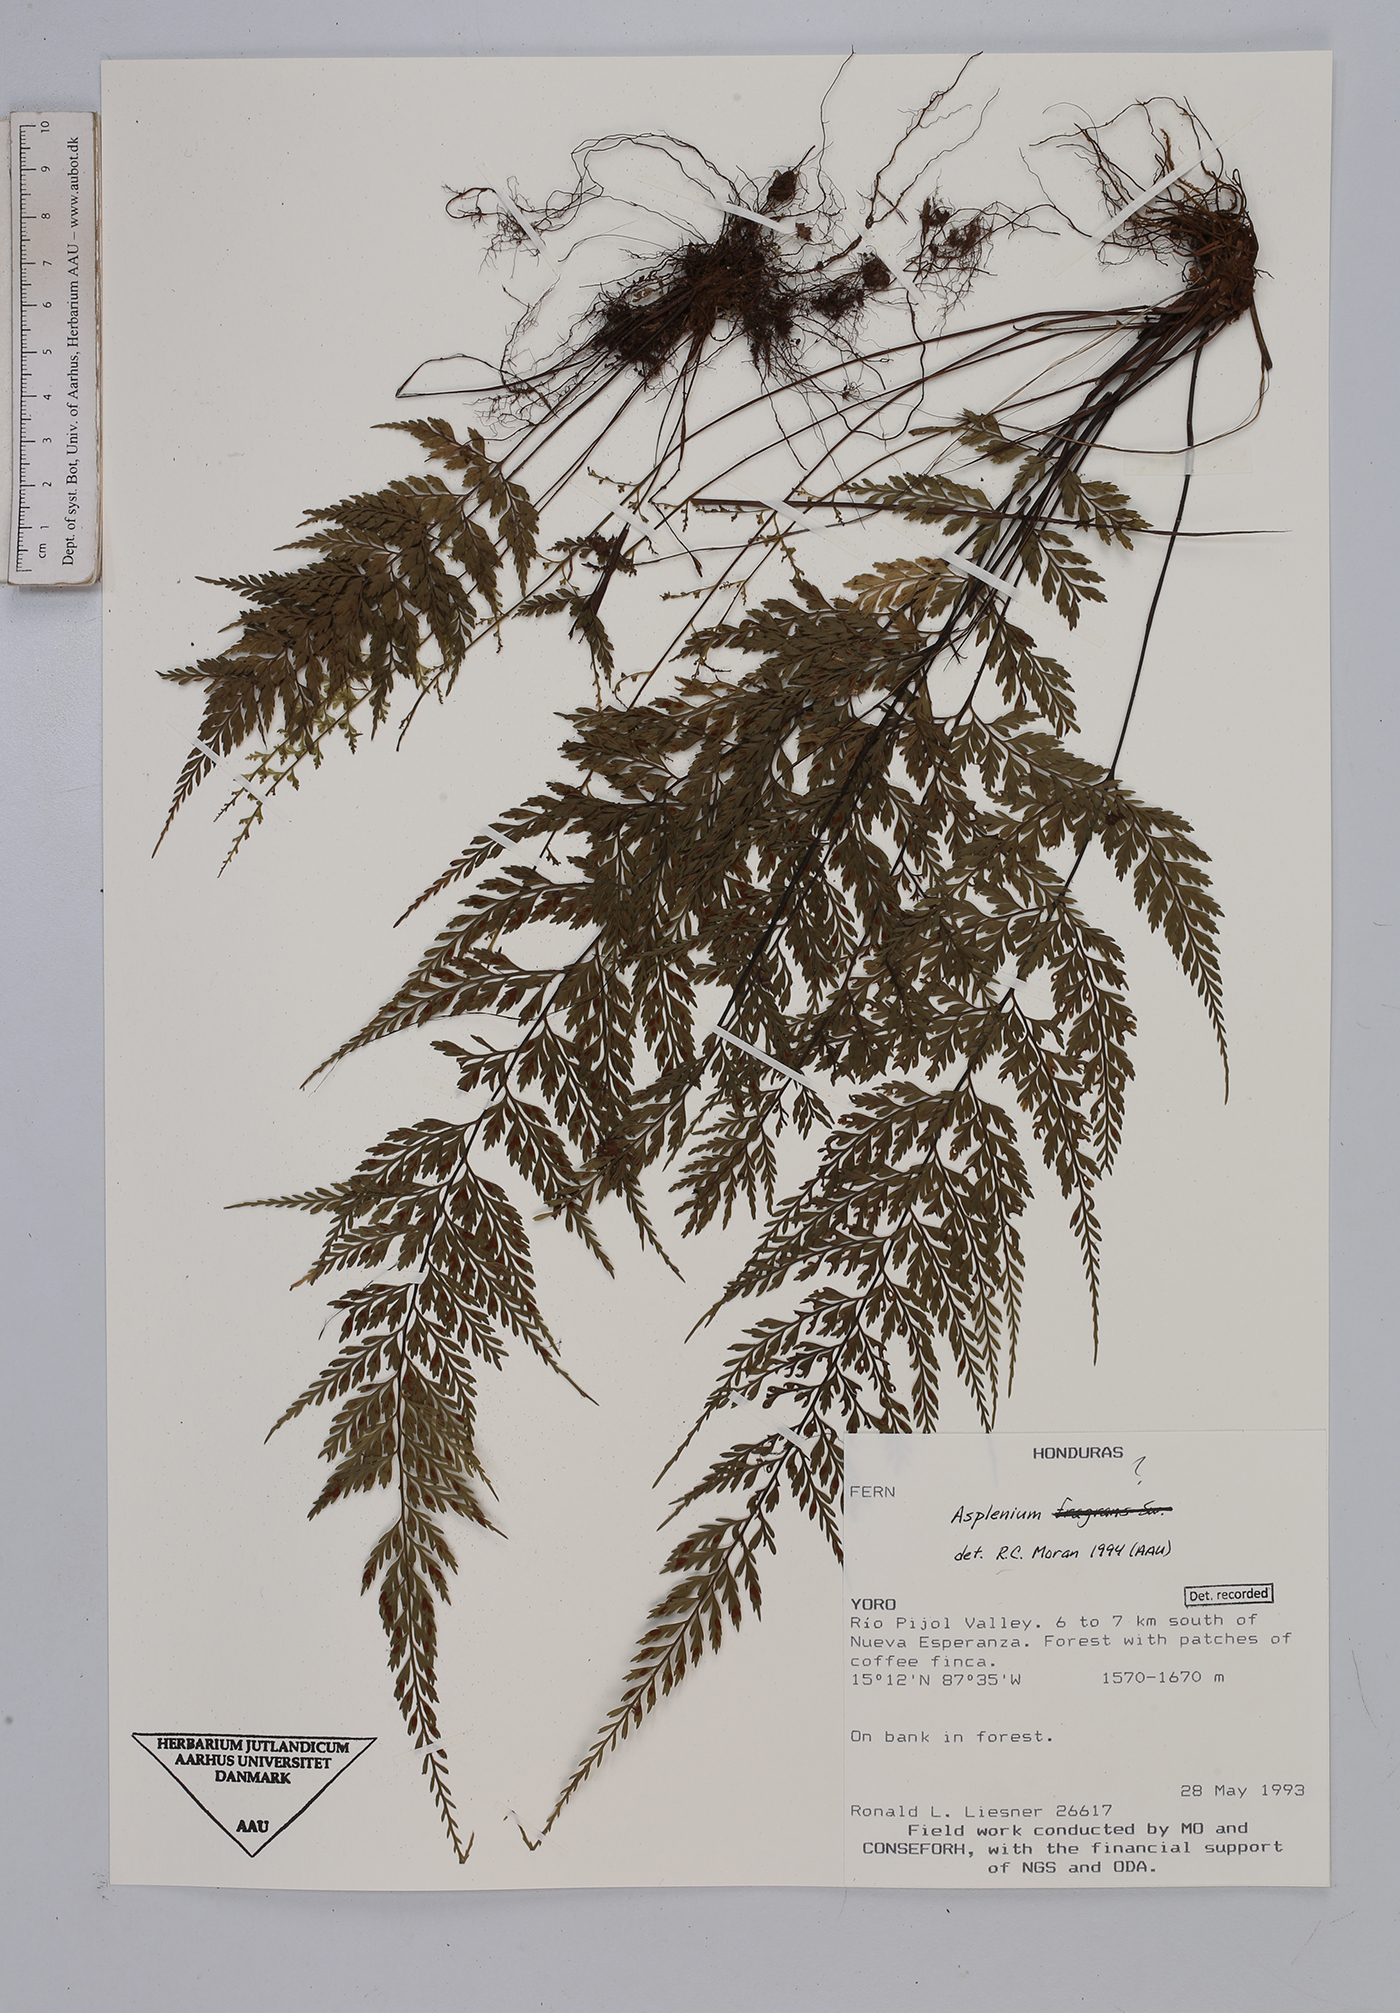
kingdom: Plantae
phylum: Tracheophyta
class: Polypodiopsida
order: Polypodiales
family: Aspleniaceae
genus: Asplenium
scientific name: Asplenium
